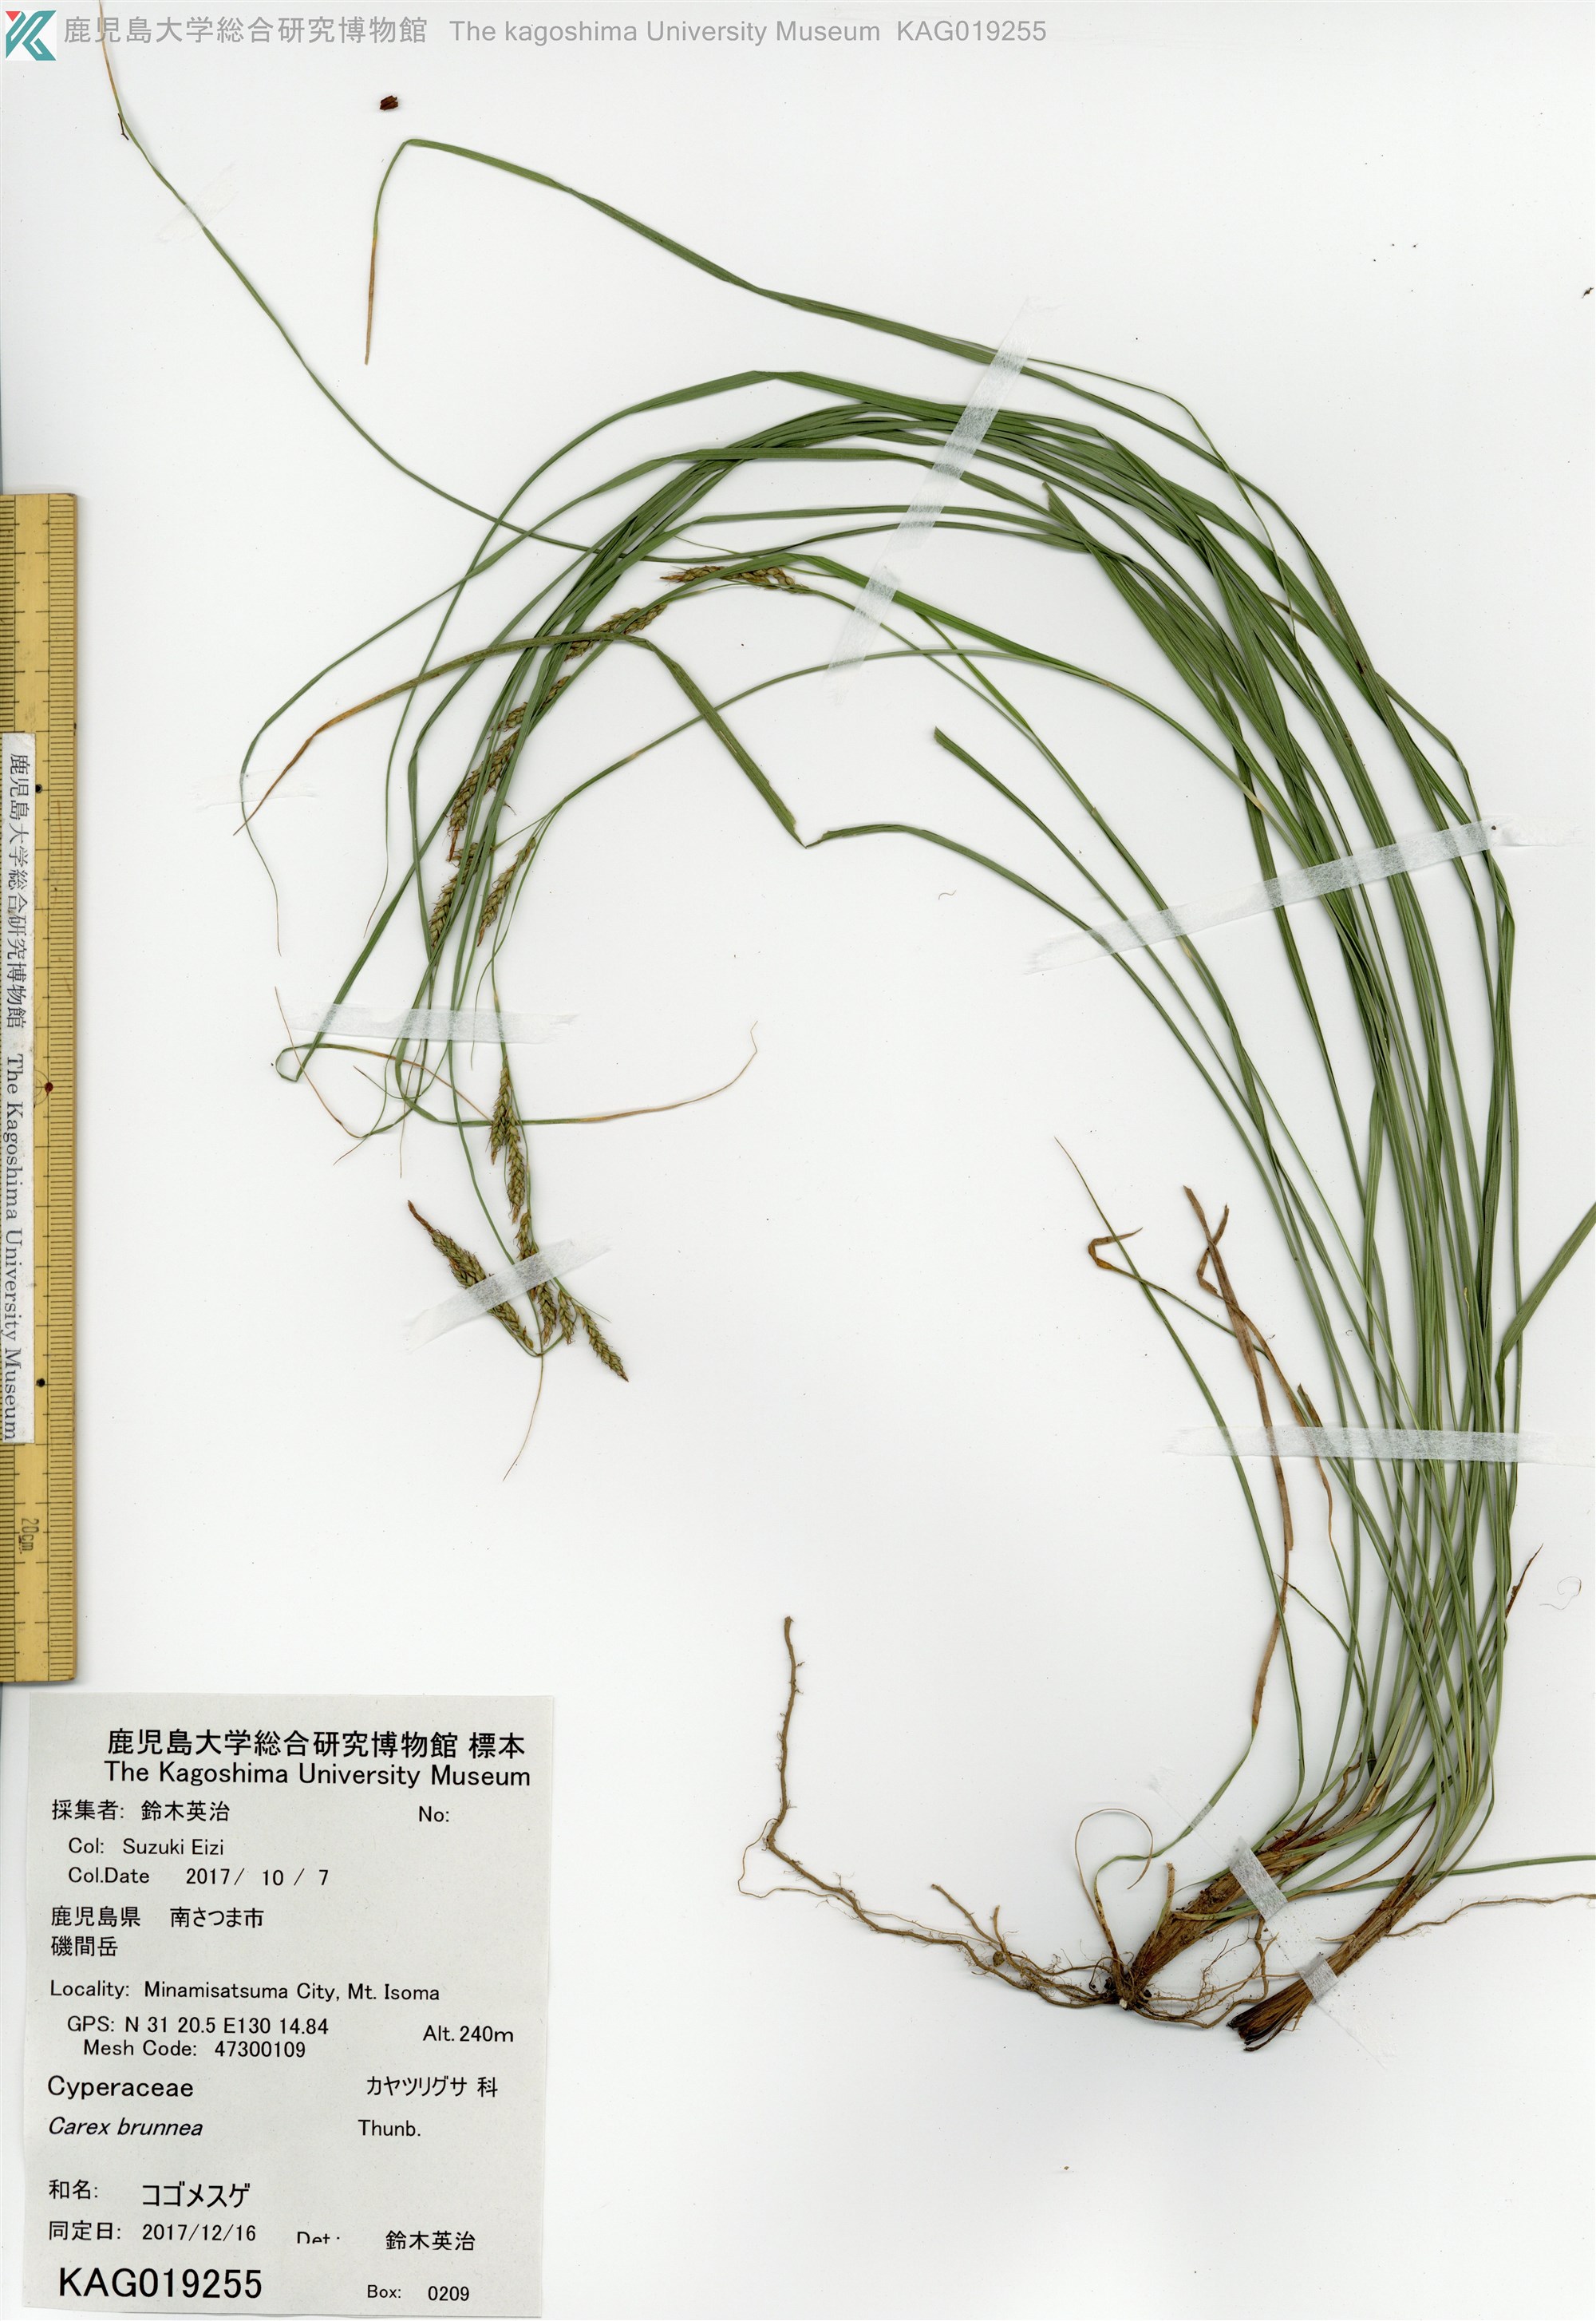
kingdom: Plantae
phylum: Tracheophyta
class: Liliopsida
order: Poales
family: Cyperaceae
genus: Carex
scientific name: Carex brunnea
